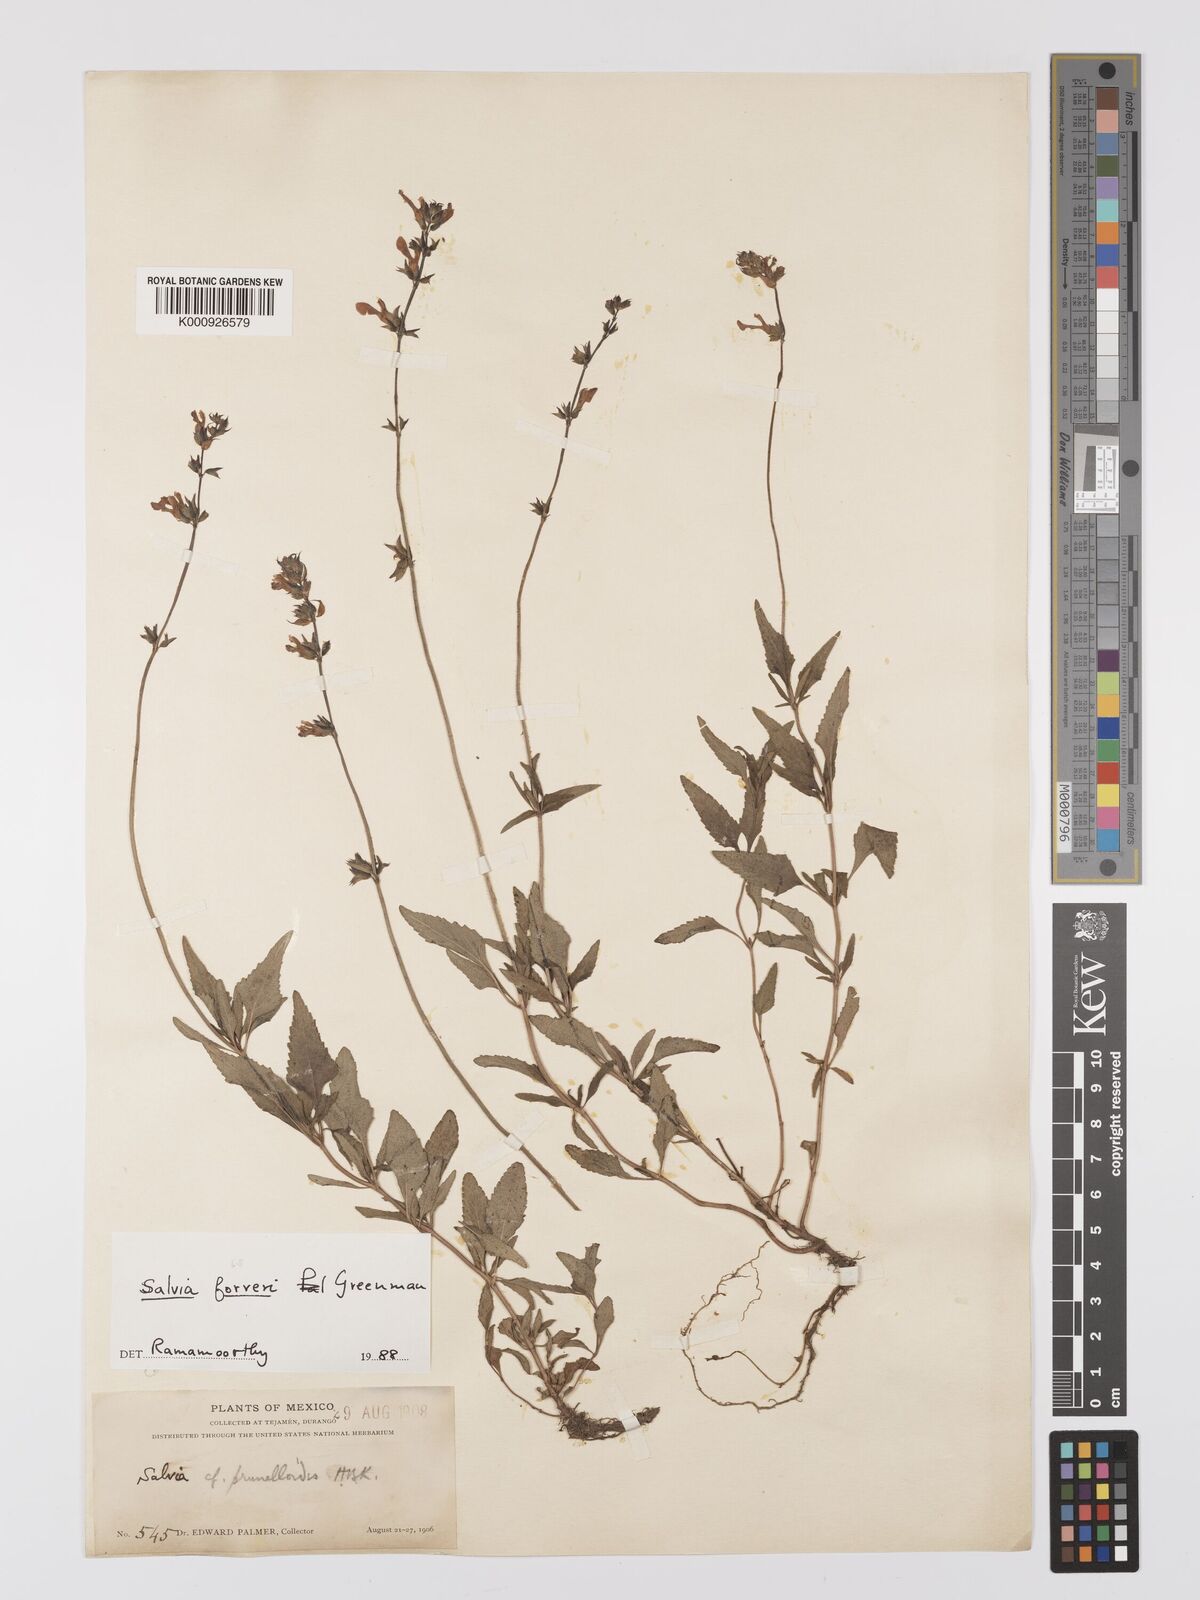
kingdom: Plantae
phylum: Tracheophyta
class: Magnoliopsida
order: Lamiales
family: Lamiaceae
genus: Salvia
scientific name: Salvia prunelloides
